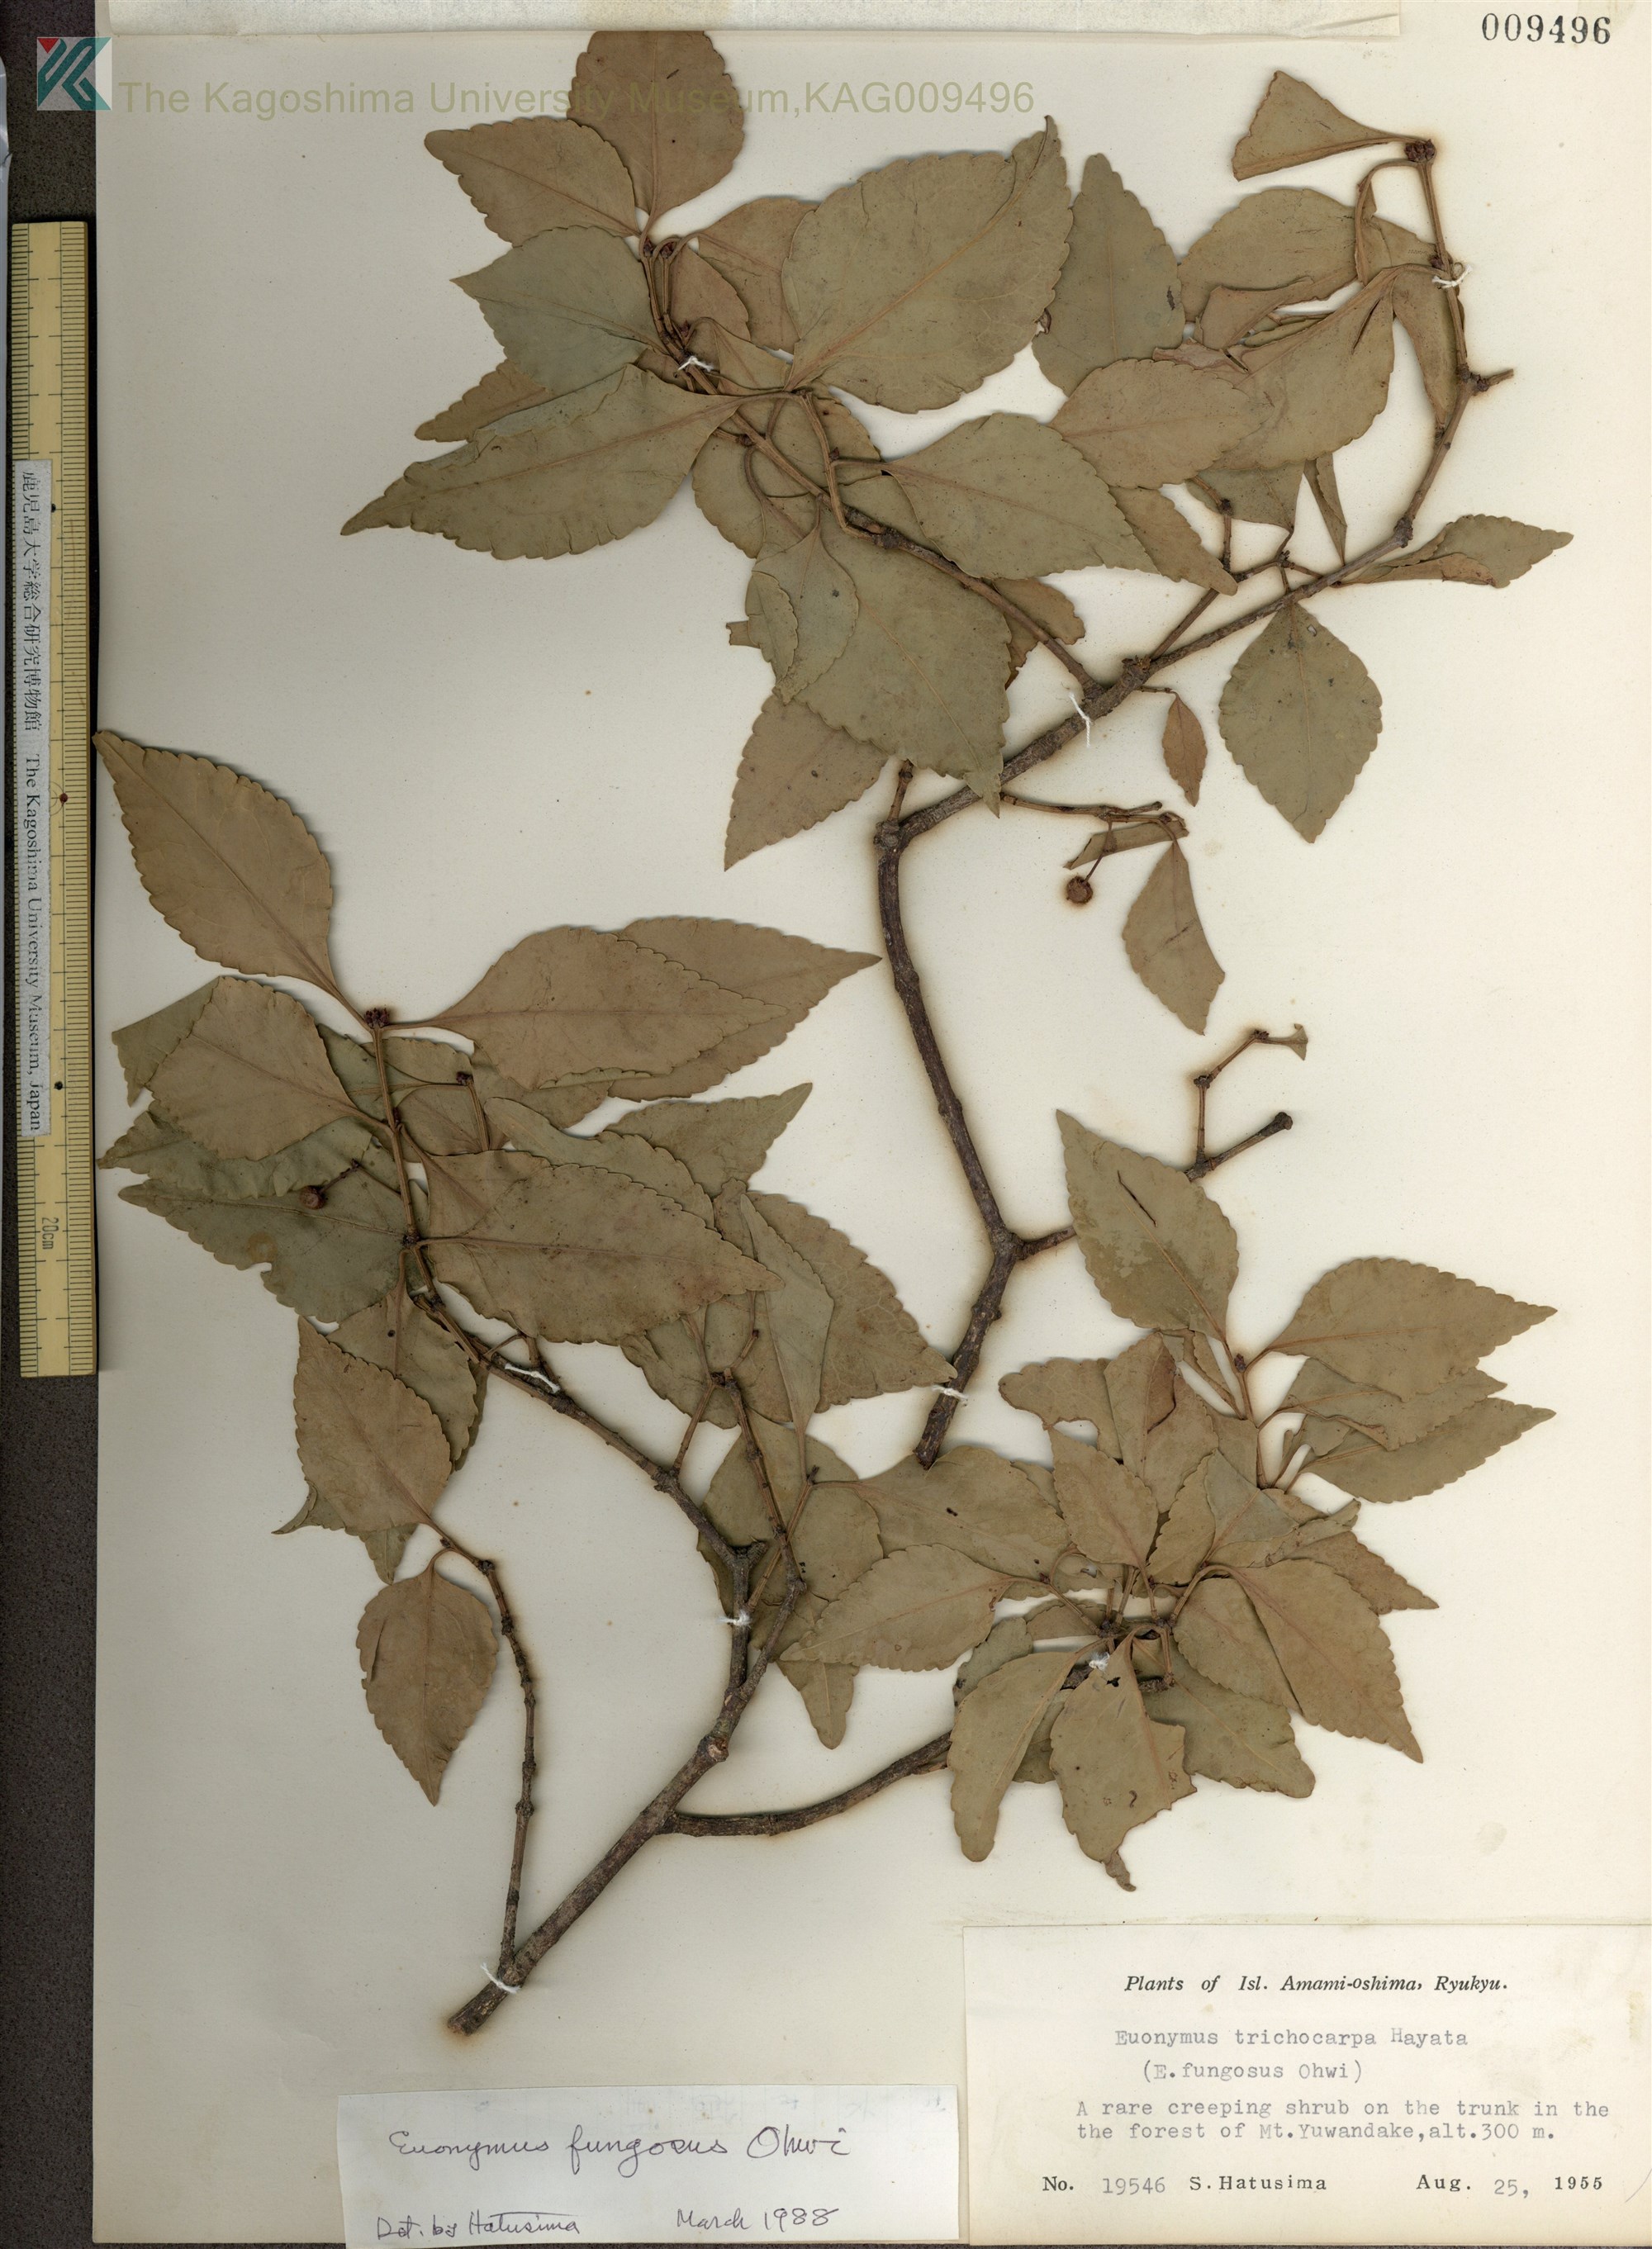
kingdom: Plantae
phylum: Tracheophyta
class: Magnoliopsida
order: Celastrales
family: Celastraceae
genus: Euonymus
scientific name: Euonymus echinatus
